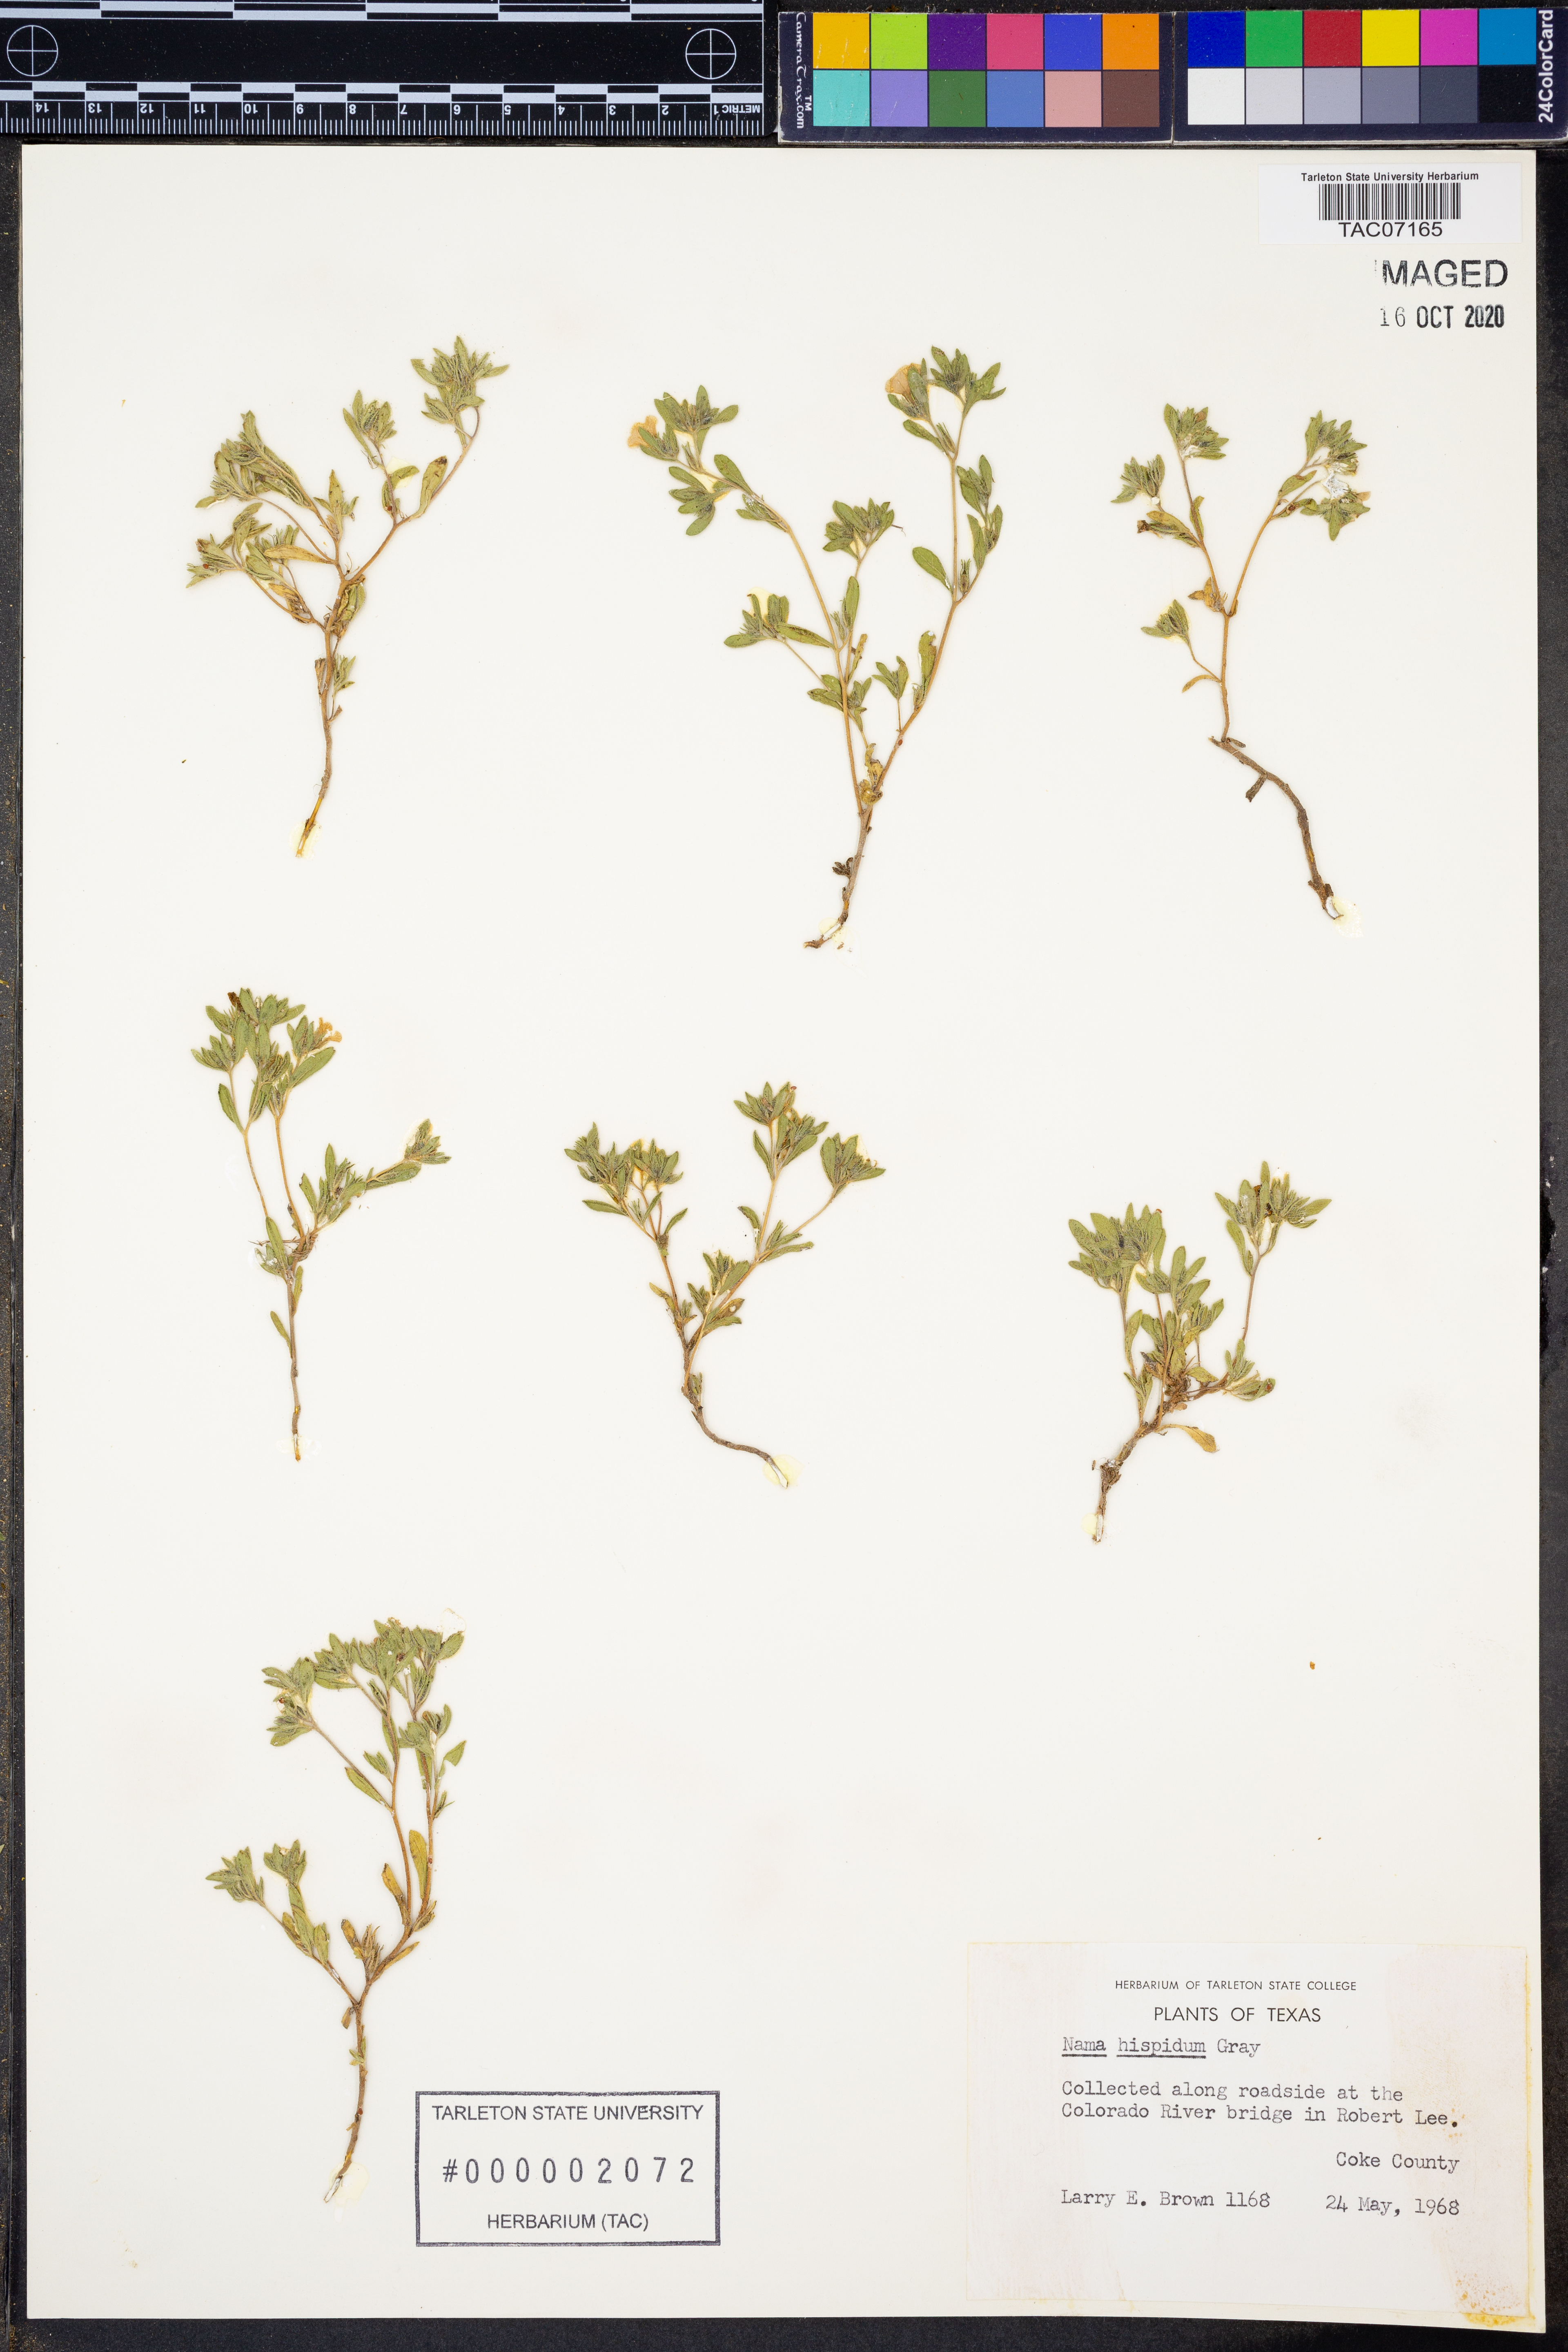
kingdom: Plantae
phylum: Tracheophyta
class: Magnoliopsida
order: Boraginales
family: Namaceae
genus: Nama
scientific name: Nama hispida
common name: Bristly nama
